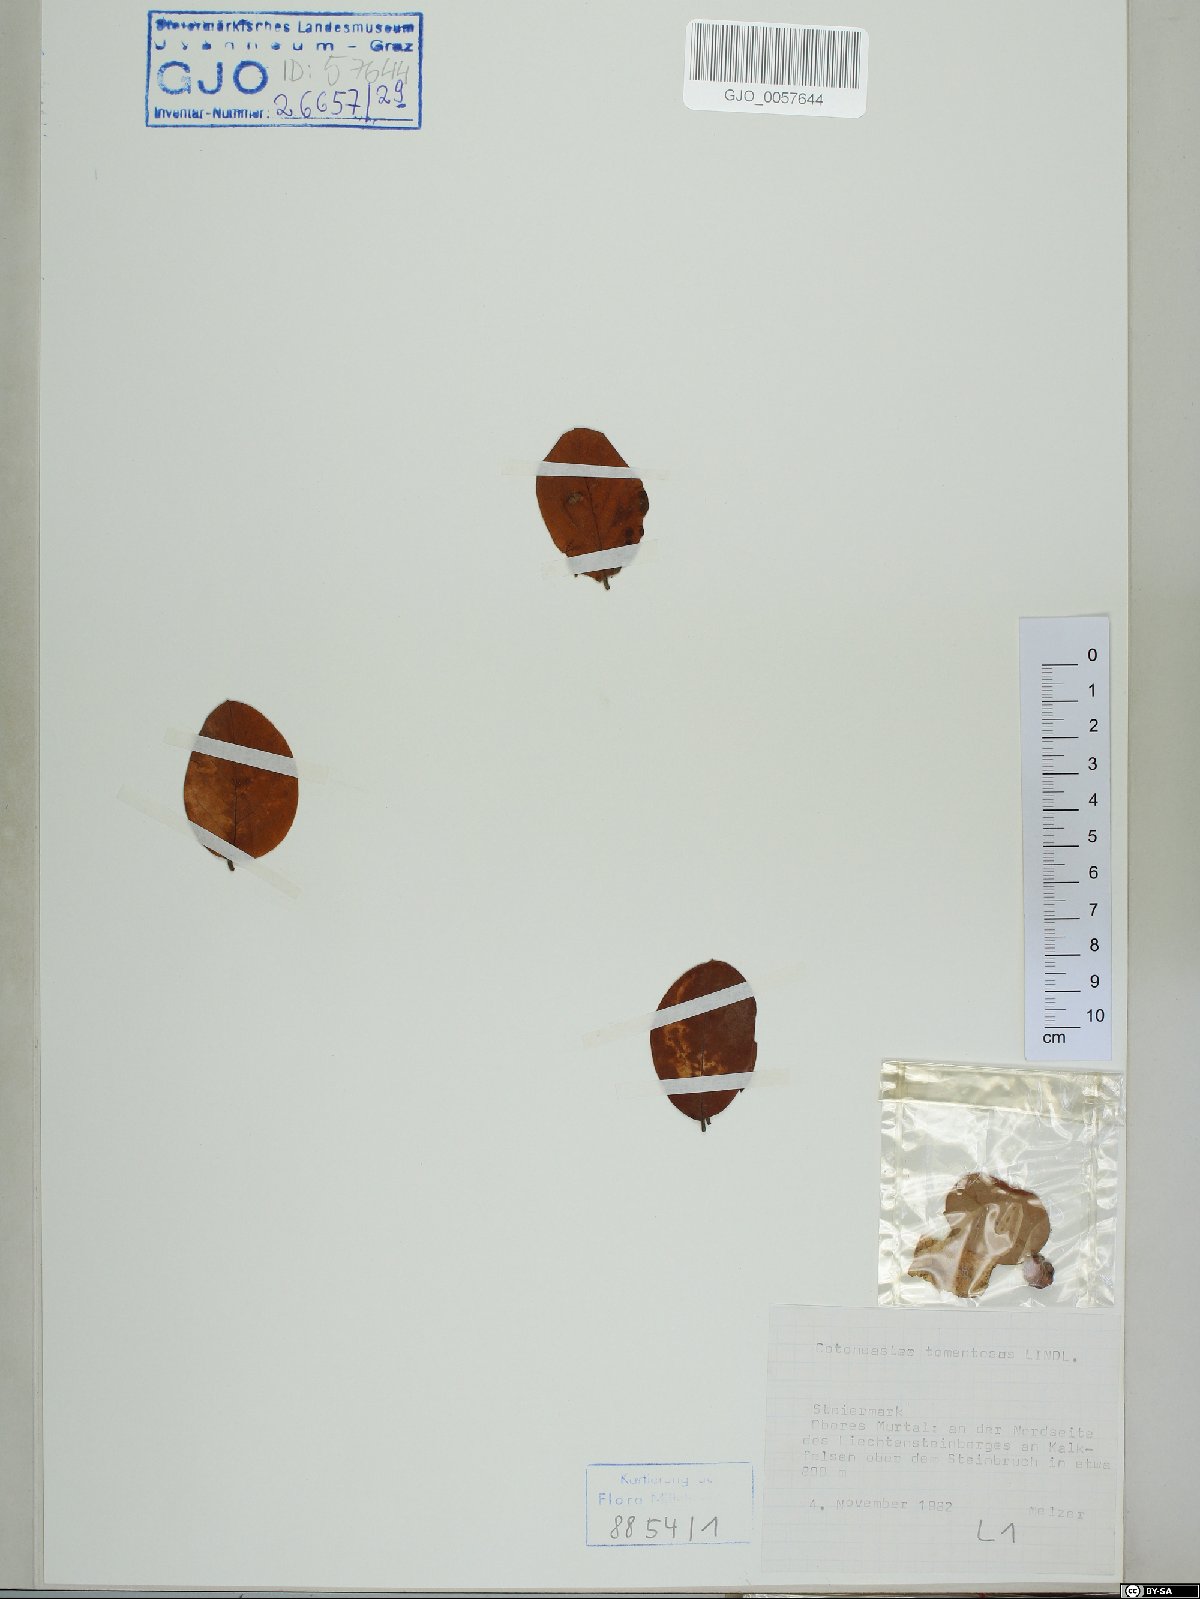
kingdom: Plantae
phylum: Tracheophyta
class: Magnoliopsida
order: Rosales
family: Rosaceae
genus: Cotoneaster
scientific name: Cotoneaster tomentosus
